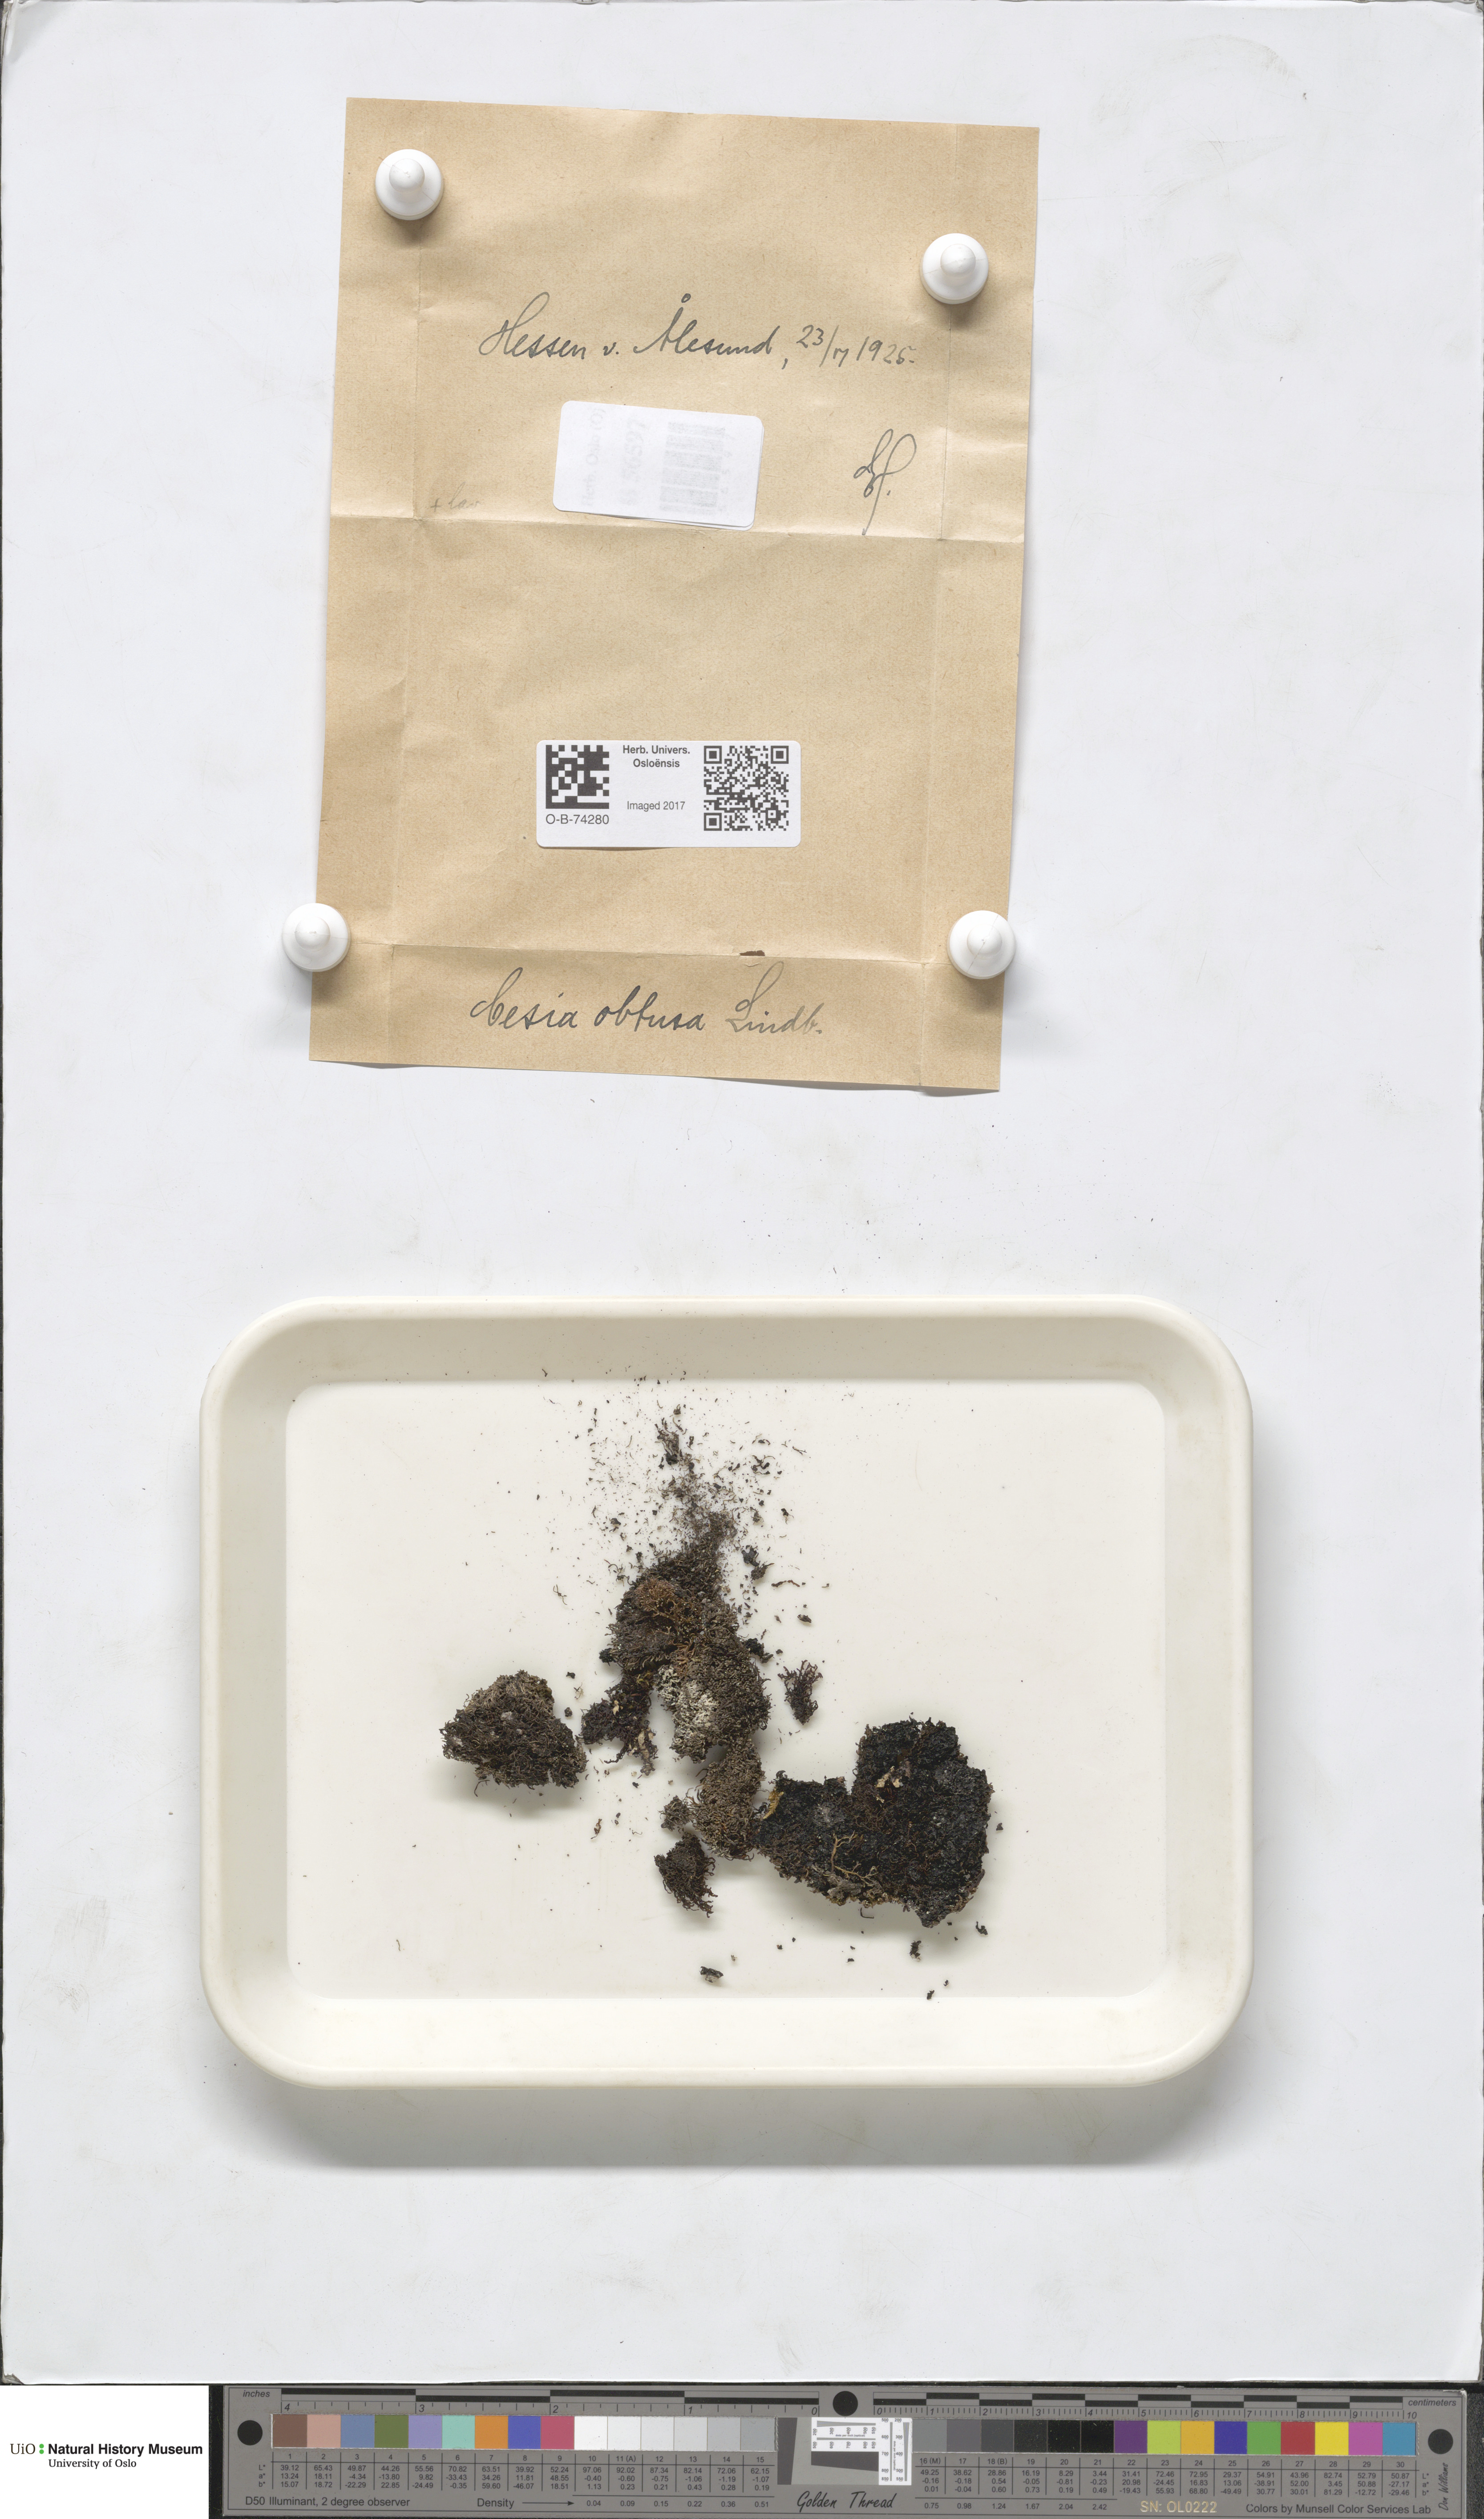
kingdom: Plantae
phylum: Marchantiophyta
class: Jungermanniopsida
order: Jungermanniales
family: Gymnomitriaceae
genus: Gymnomitrion
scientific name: Gymnomitrion obtusum
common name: White frostwort
